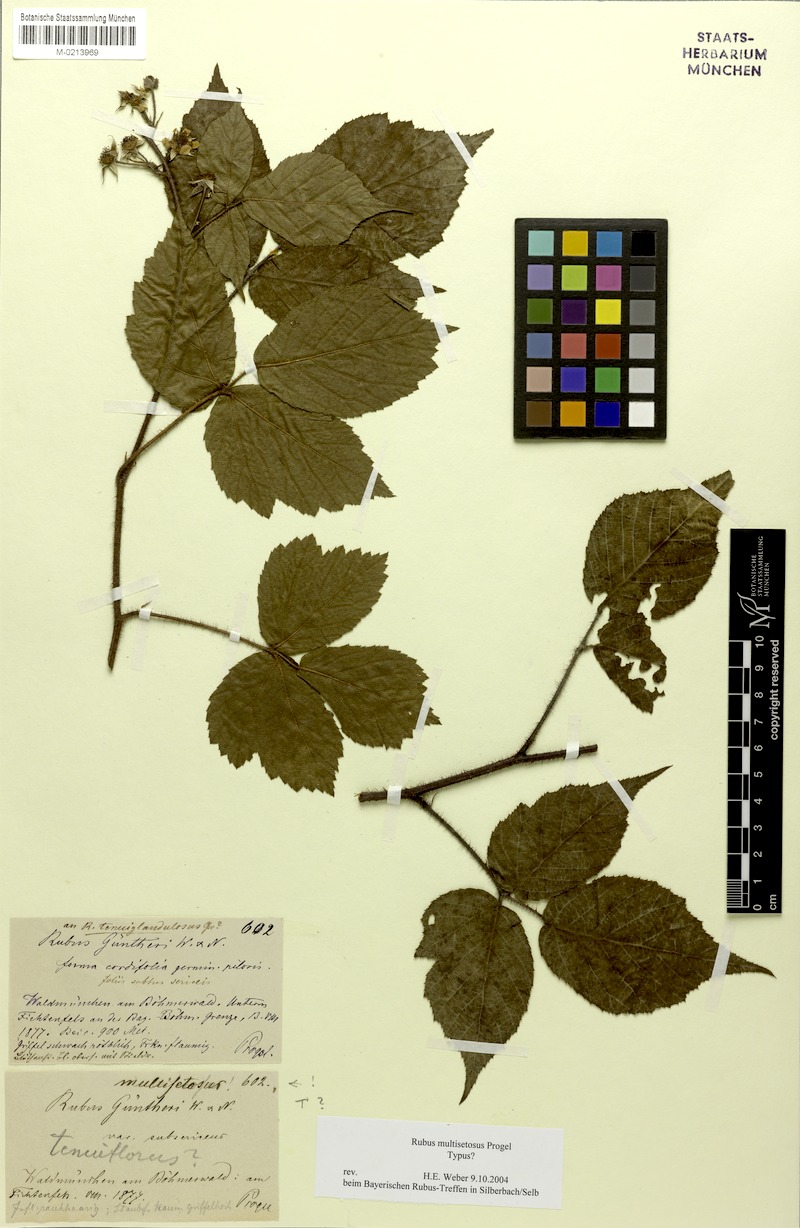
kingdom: Plantae
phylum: Tracheophyta
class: Magnoliopsida
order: Rosales
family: Rosaceae
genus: Rubus
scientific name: Rubus multisetosus
